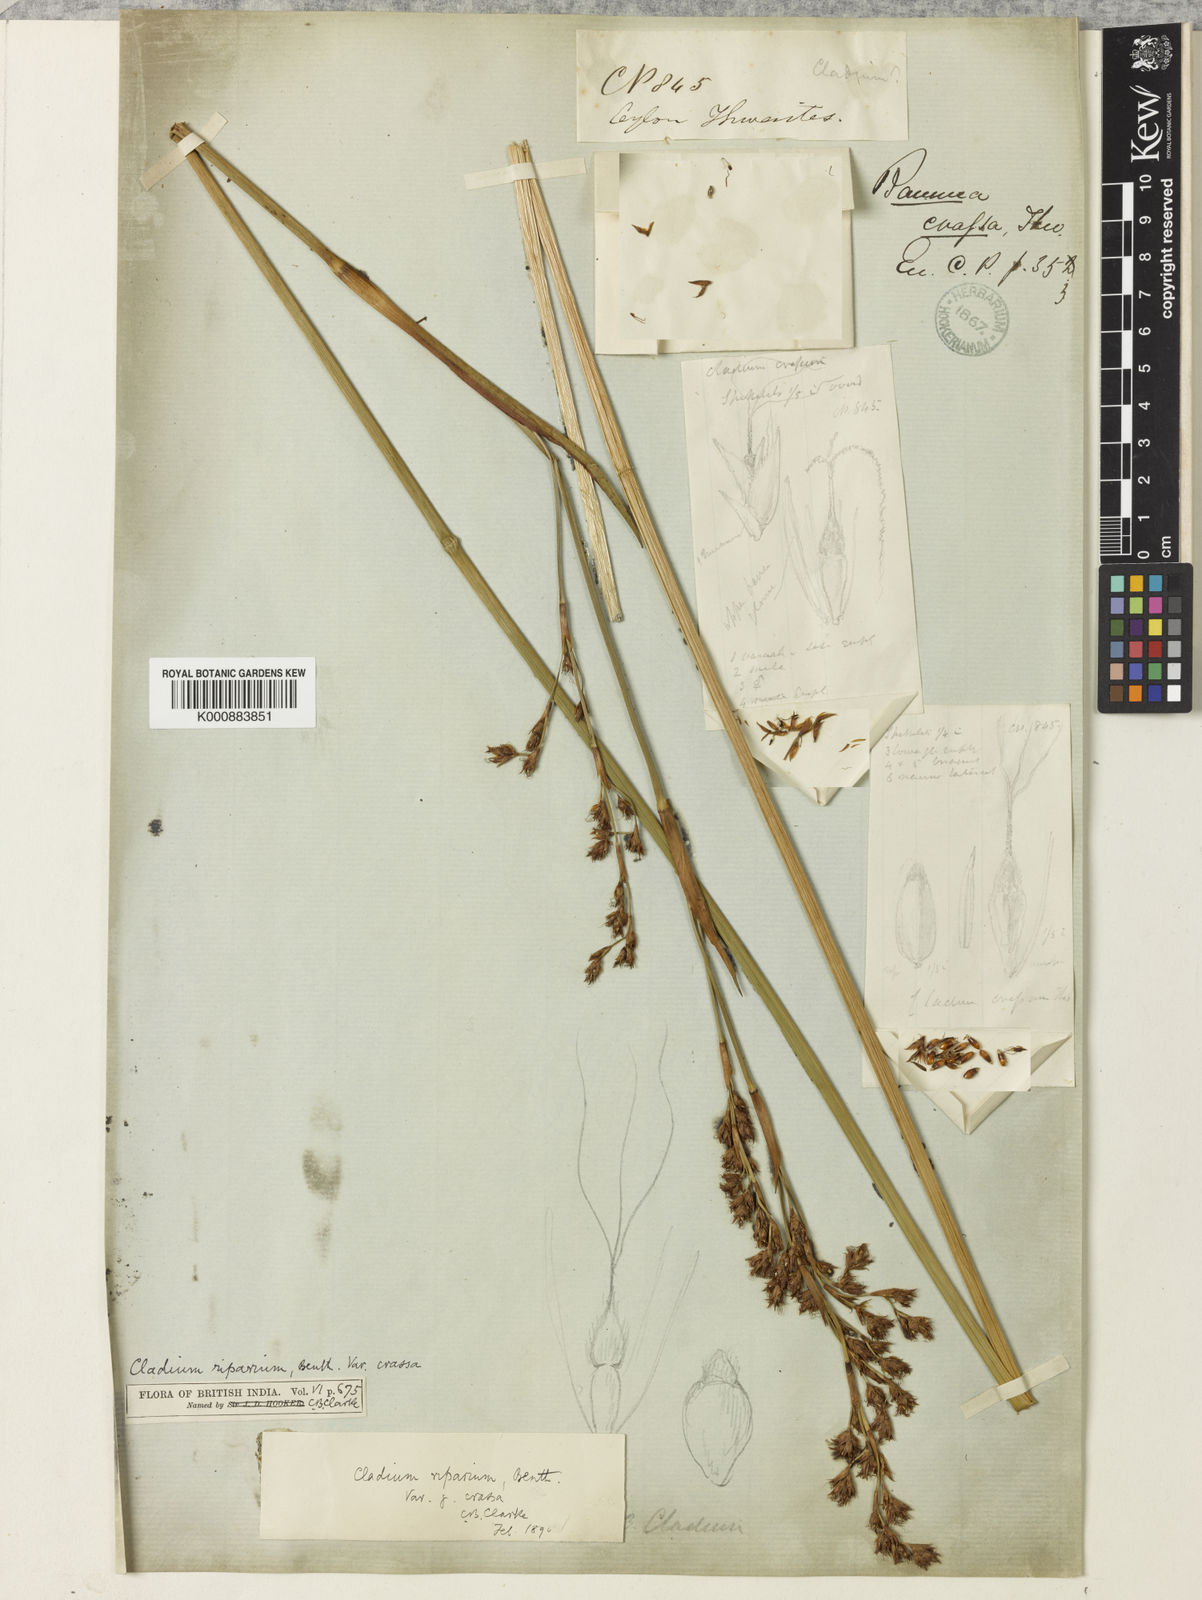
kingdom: Plantae
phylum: Tracheophyta
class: Liliopsida
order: Poales
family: Cyperaceae
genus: Machaerina
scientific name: Machaerina rubiginosa
